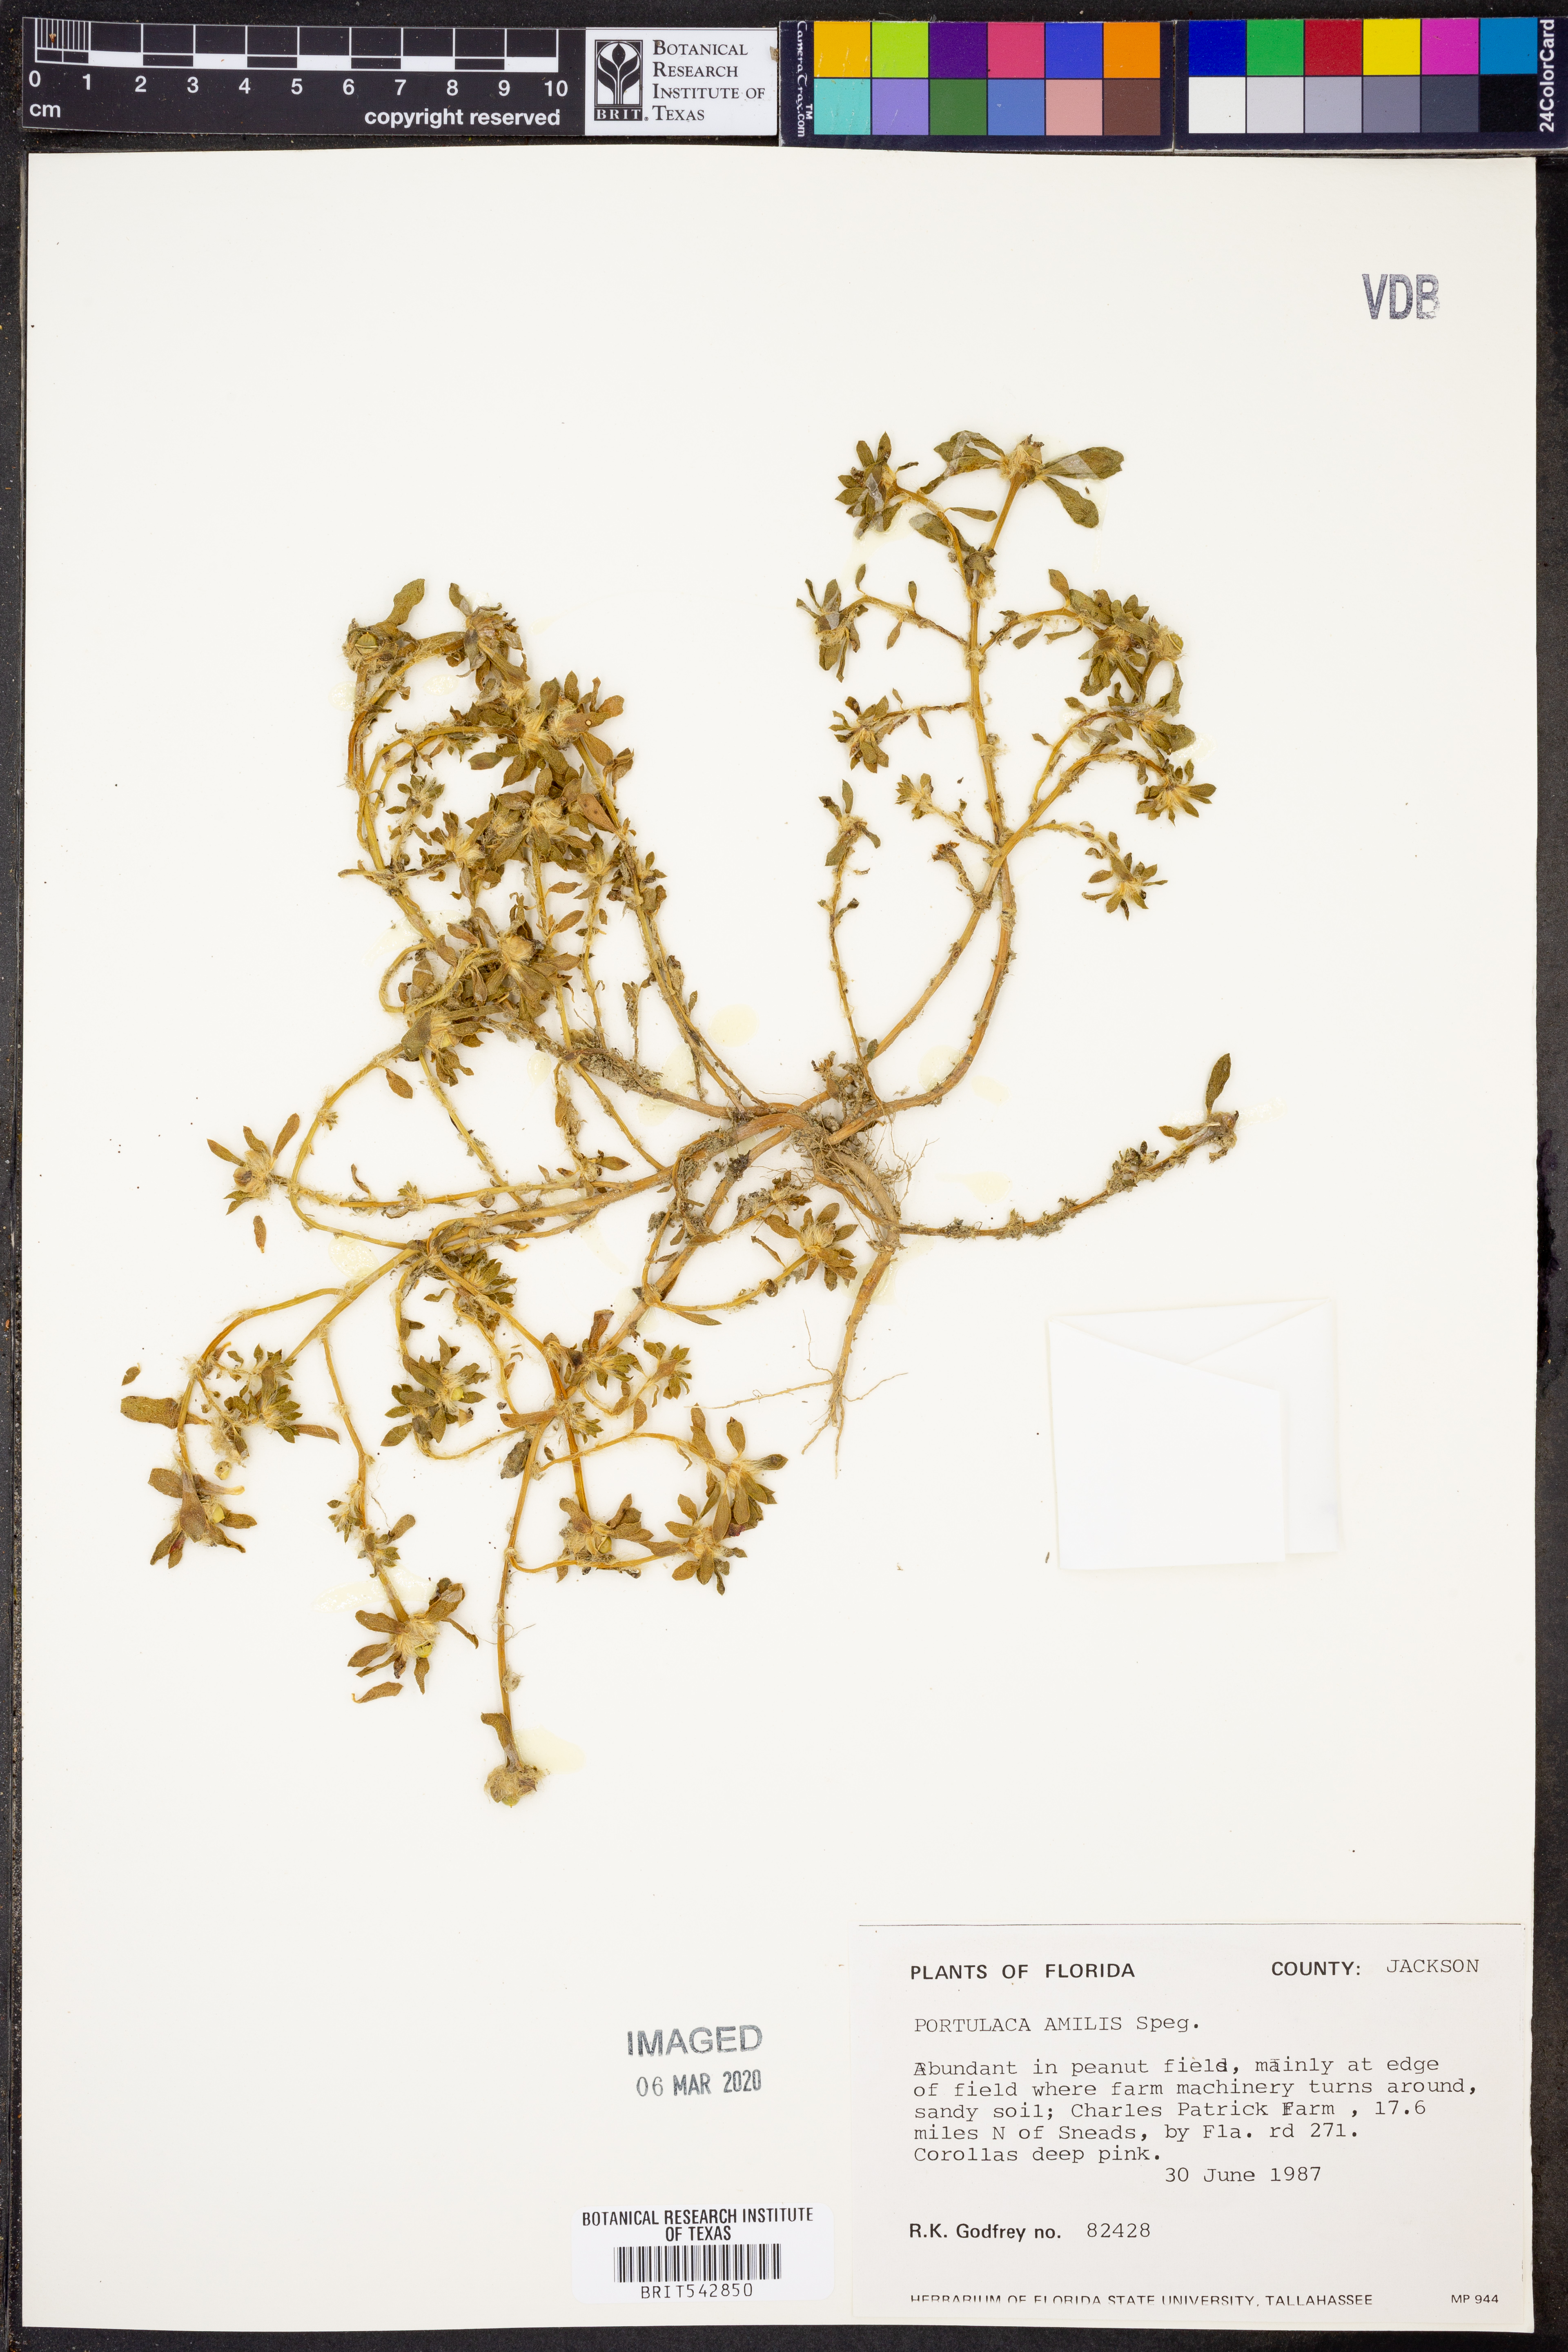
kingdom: Plantae
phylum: Tracheophyta
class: Magnoliopsida
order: Caryophyllales
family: Portulacaceae
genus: Portulaca
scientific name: Portulaca amilis
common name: Paraguayan purslane
